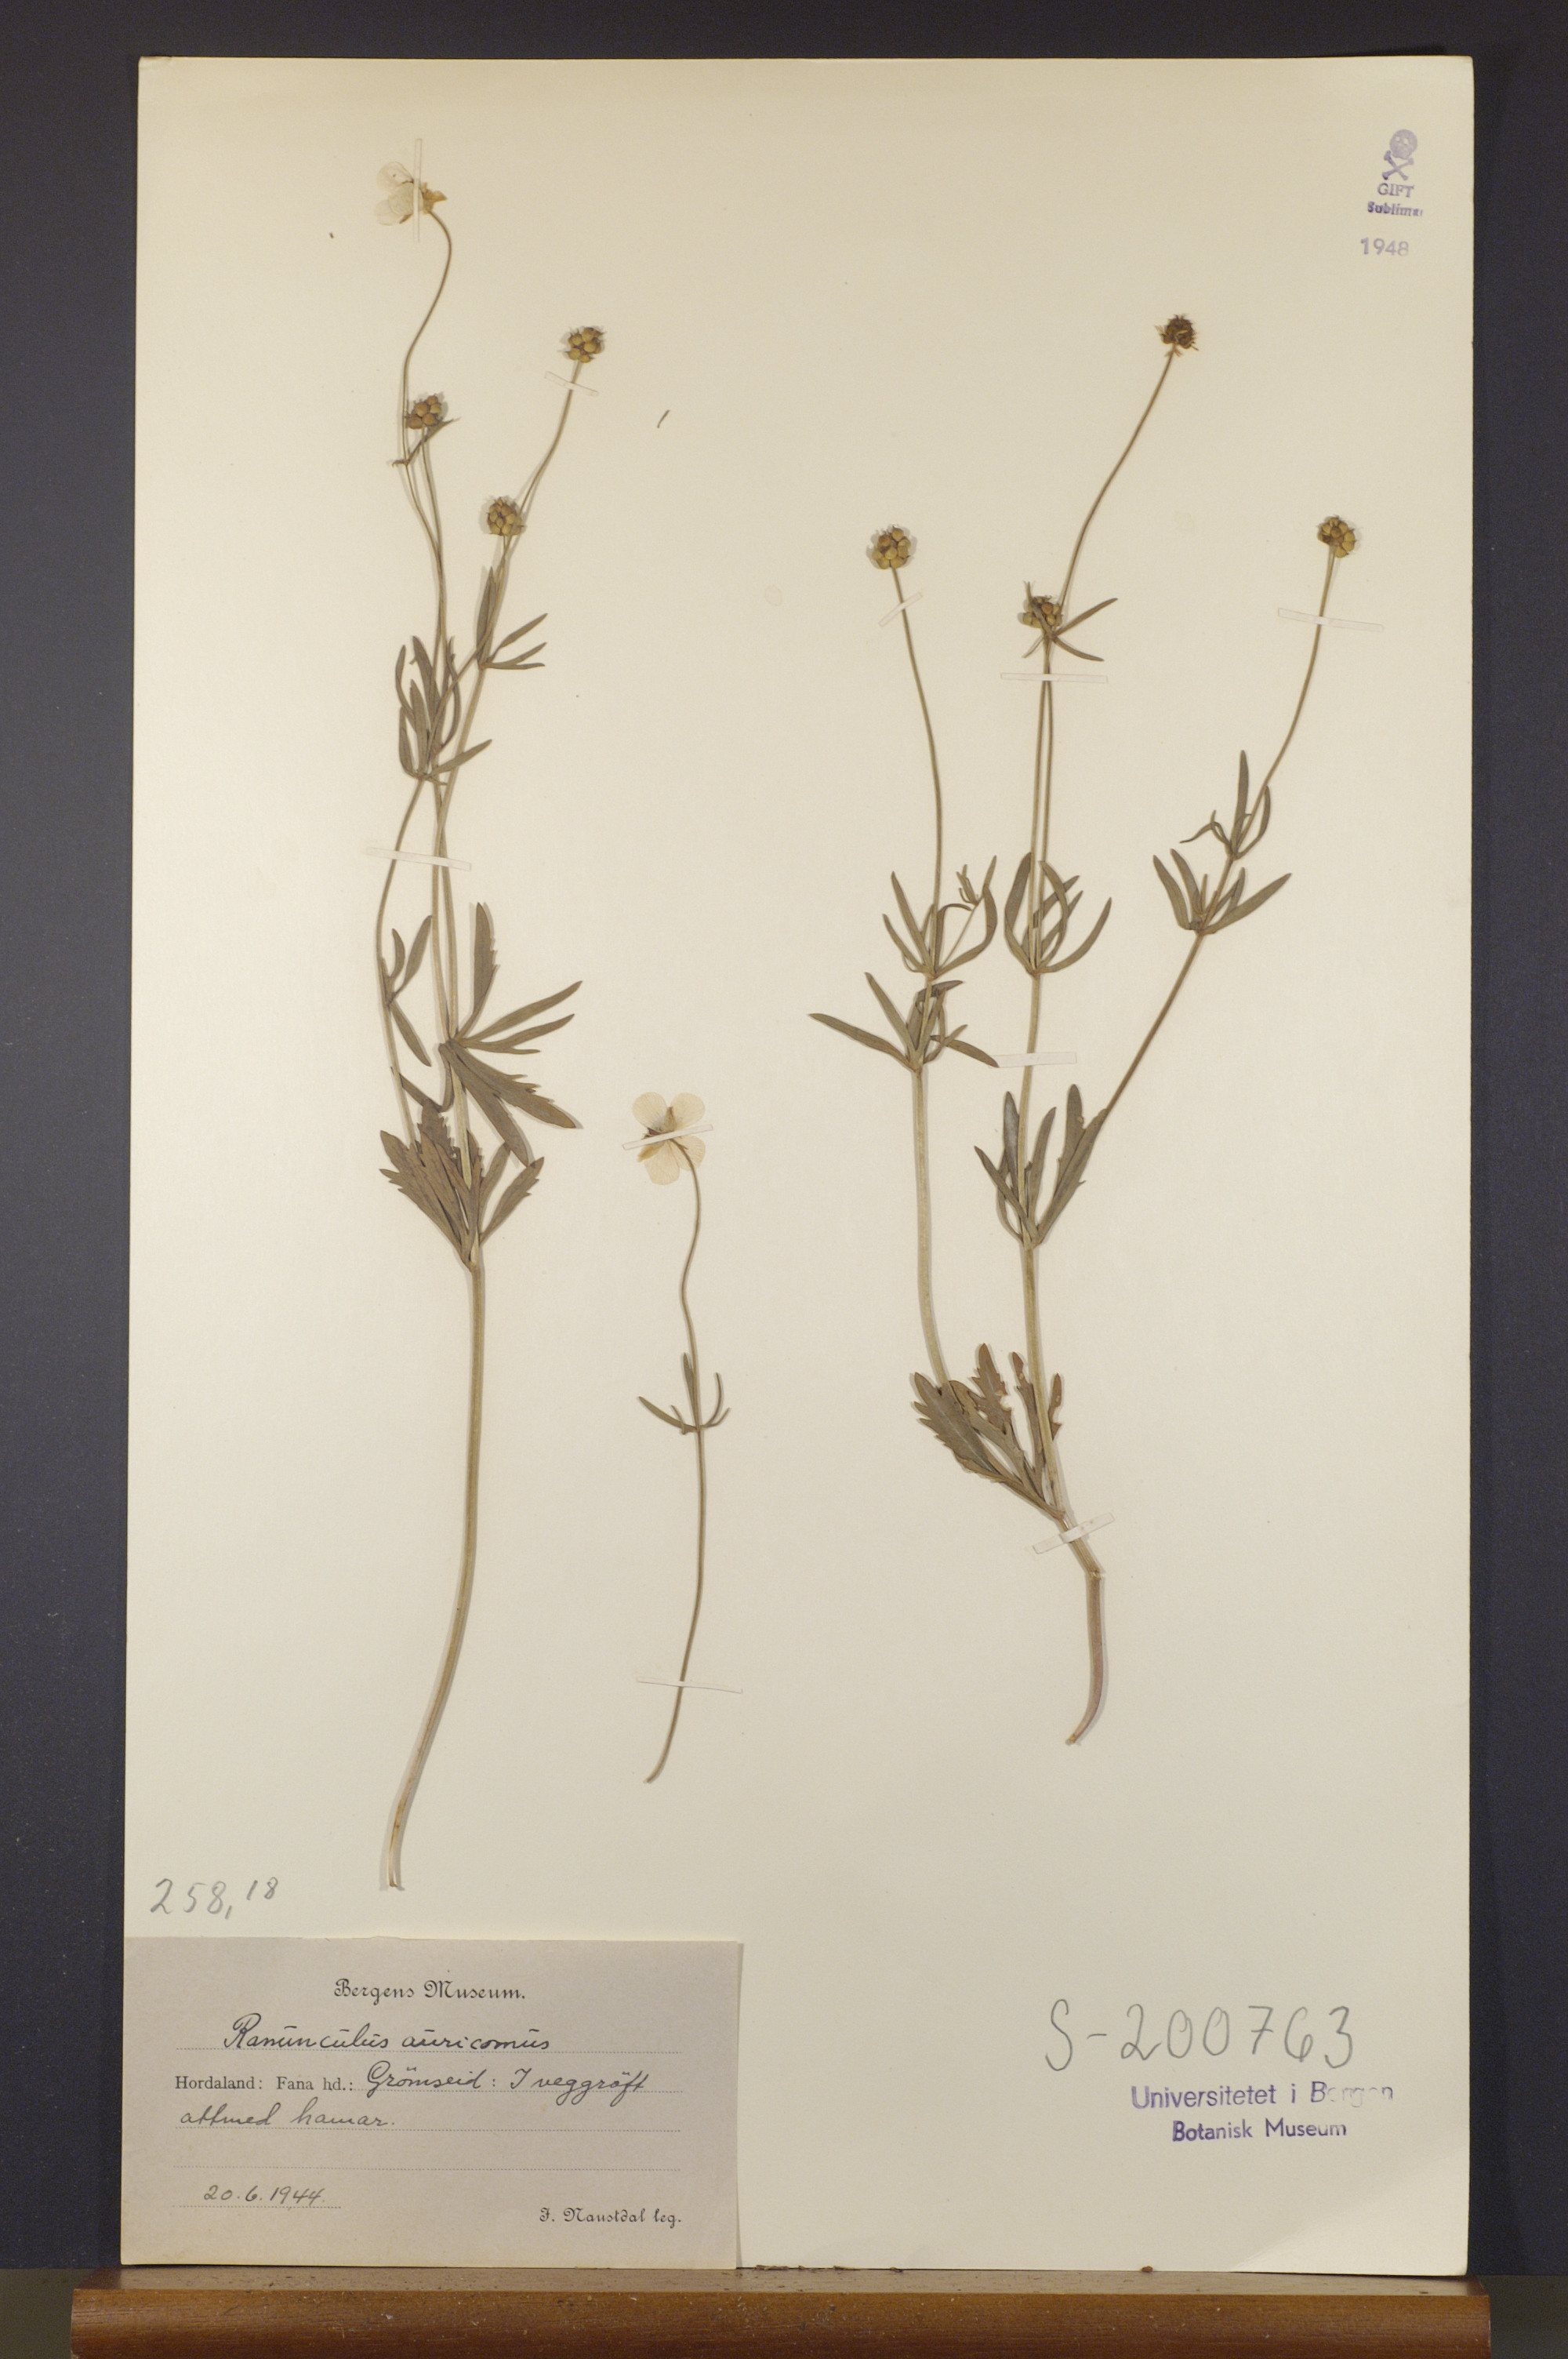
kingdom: Plantae
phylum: Tracheophyta
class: Magnoliopsida
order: Ranunculales
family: Ranunculaceae
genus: Ranunculus
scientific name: Ranunculus auricomus
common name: Goldilocks buttercup
